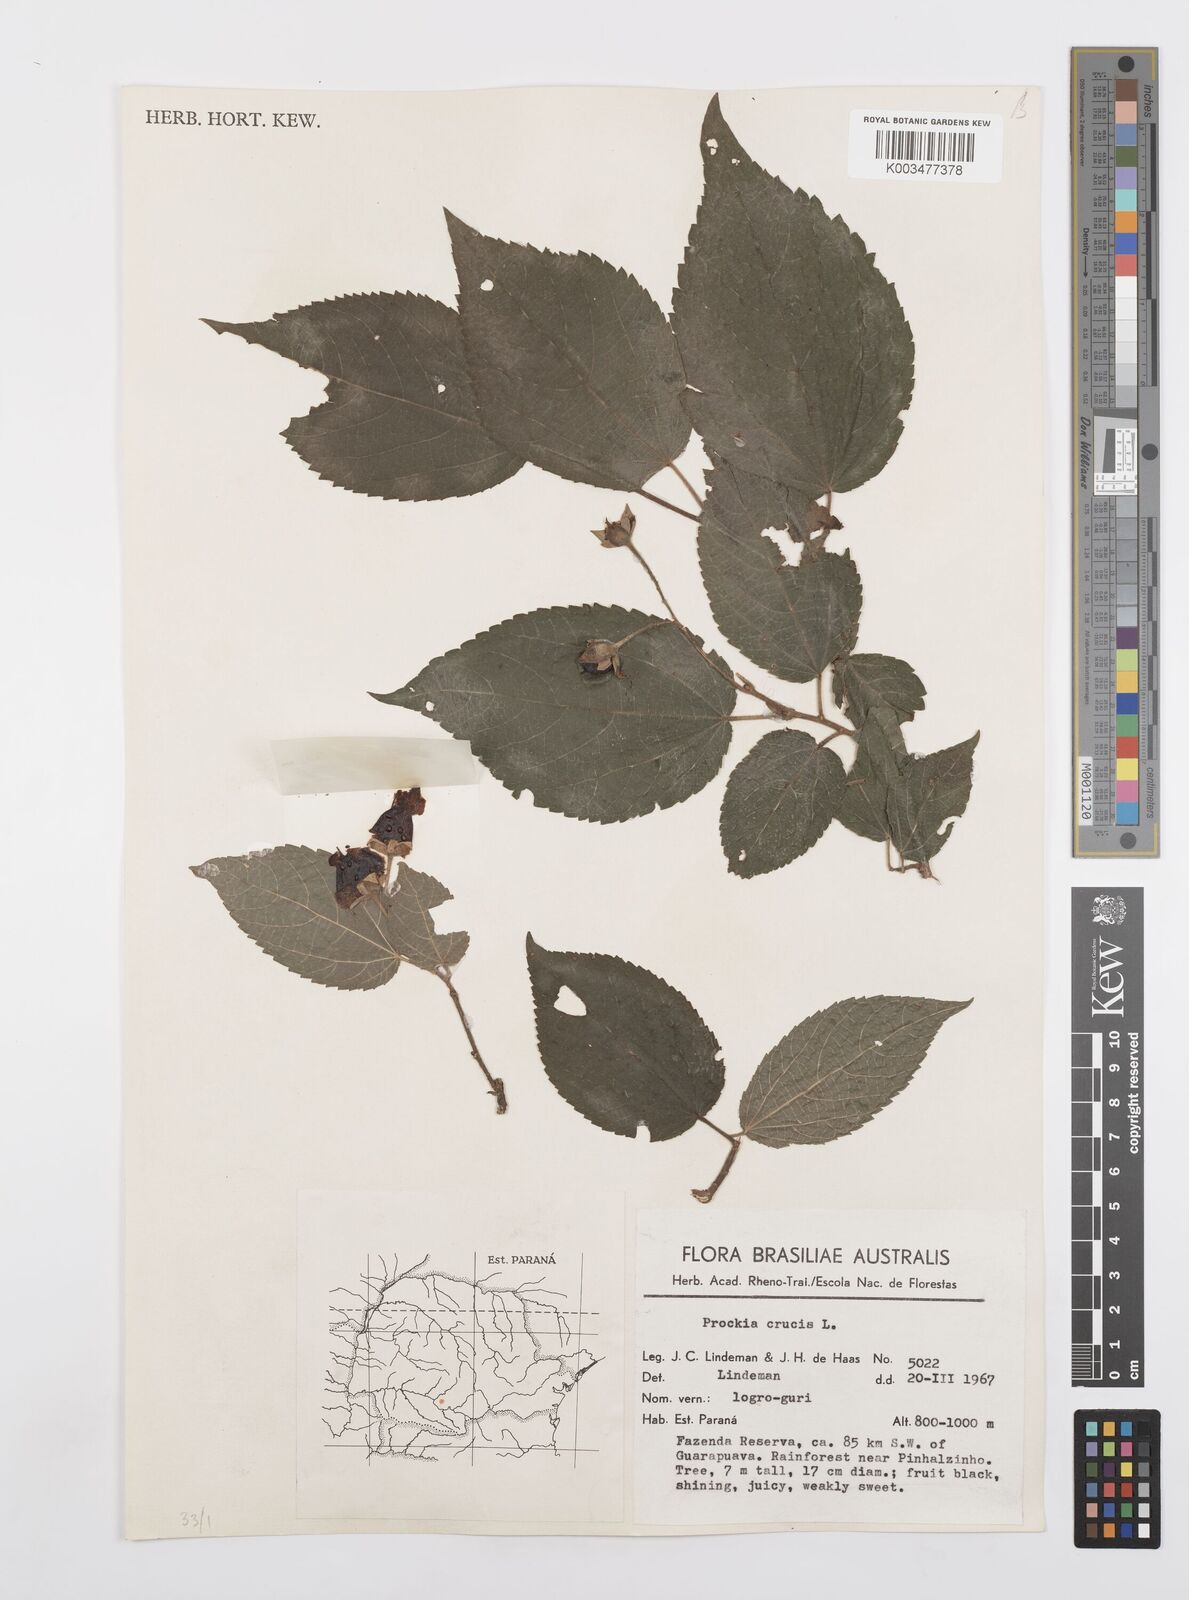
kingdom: Plantae
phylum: Tracheophyta
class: Magnoliopsida
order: Malpighiales
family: Salicaceae
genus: Prockia
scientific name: Prockia crucis
